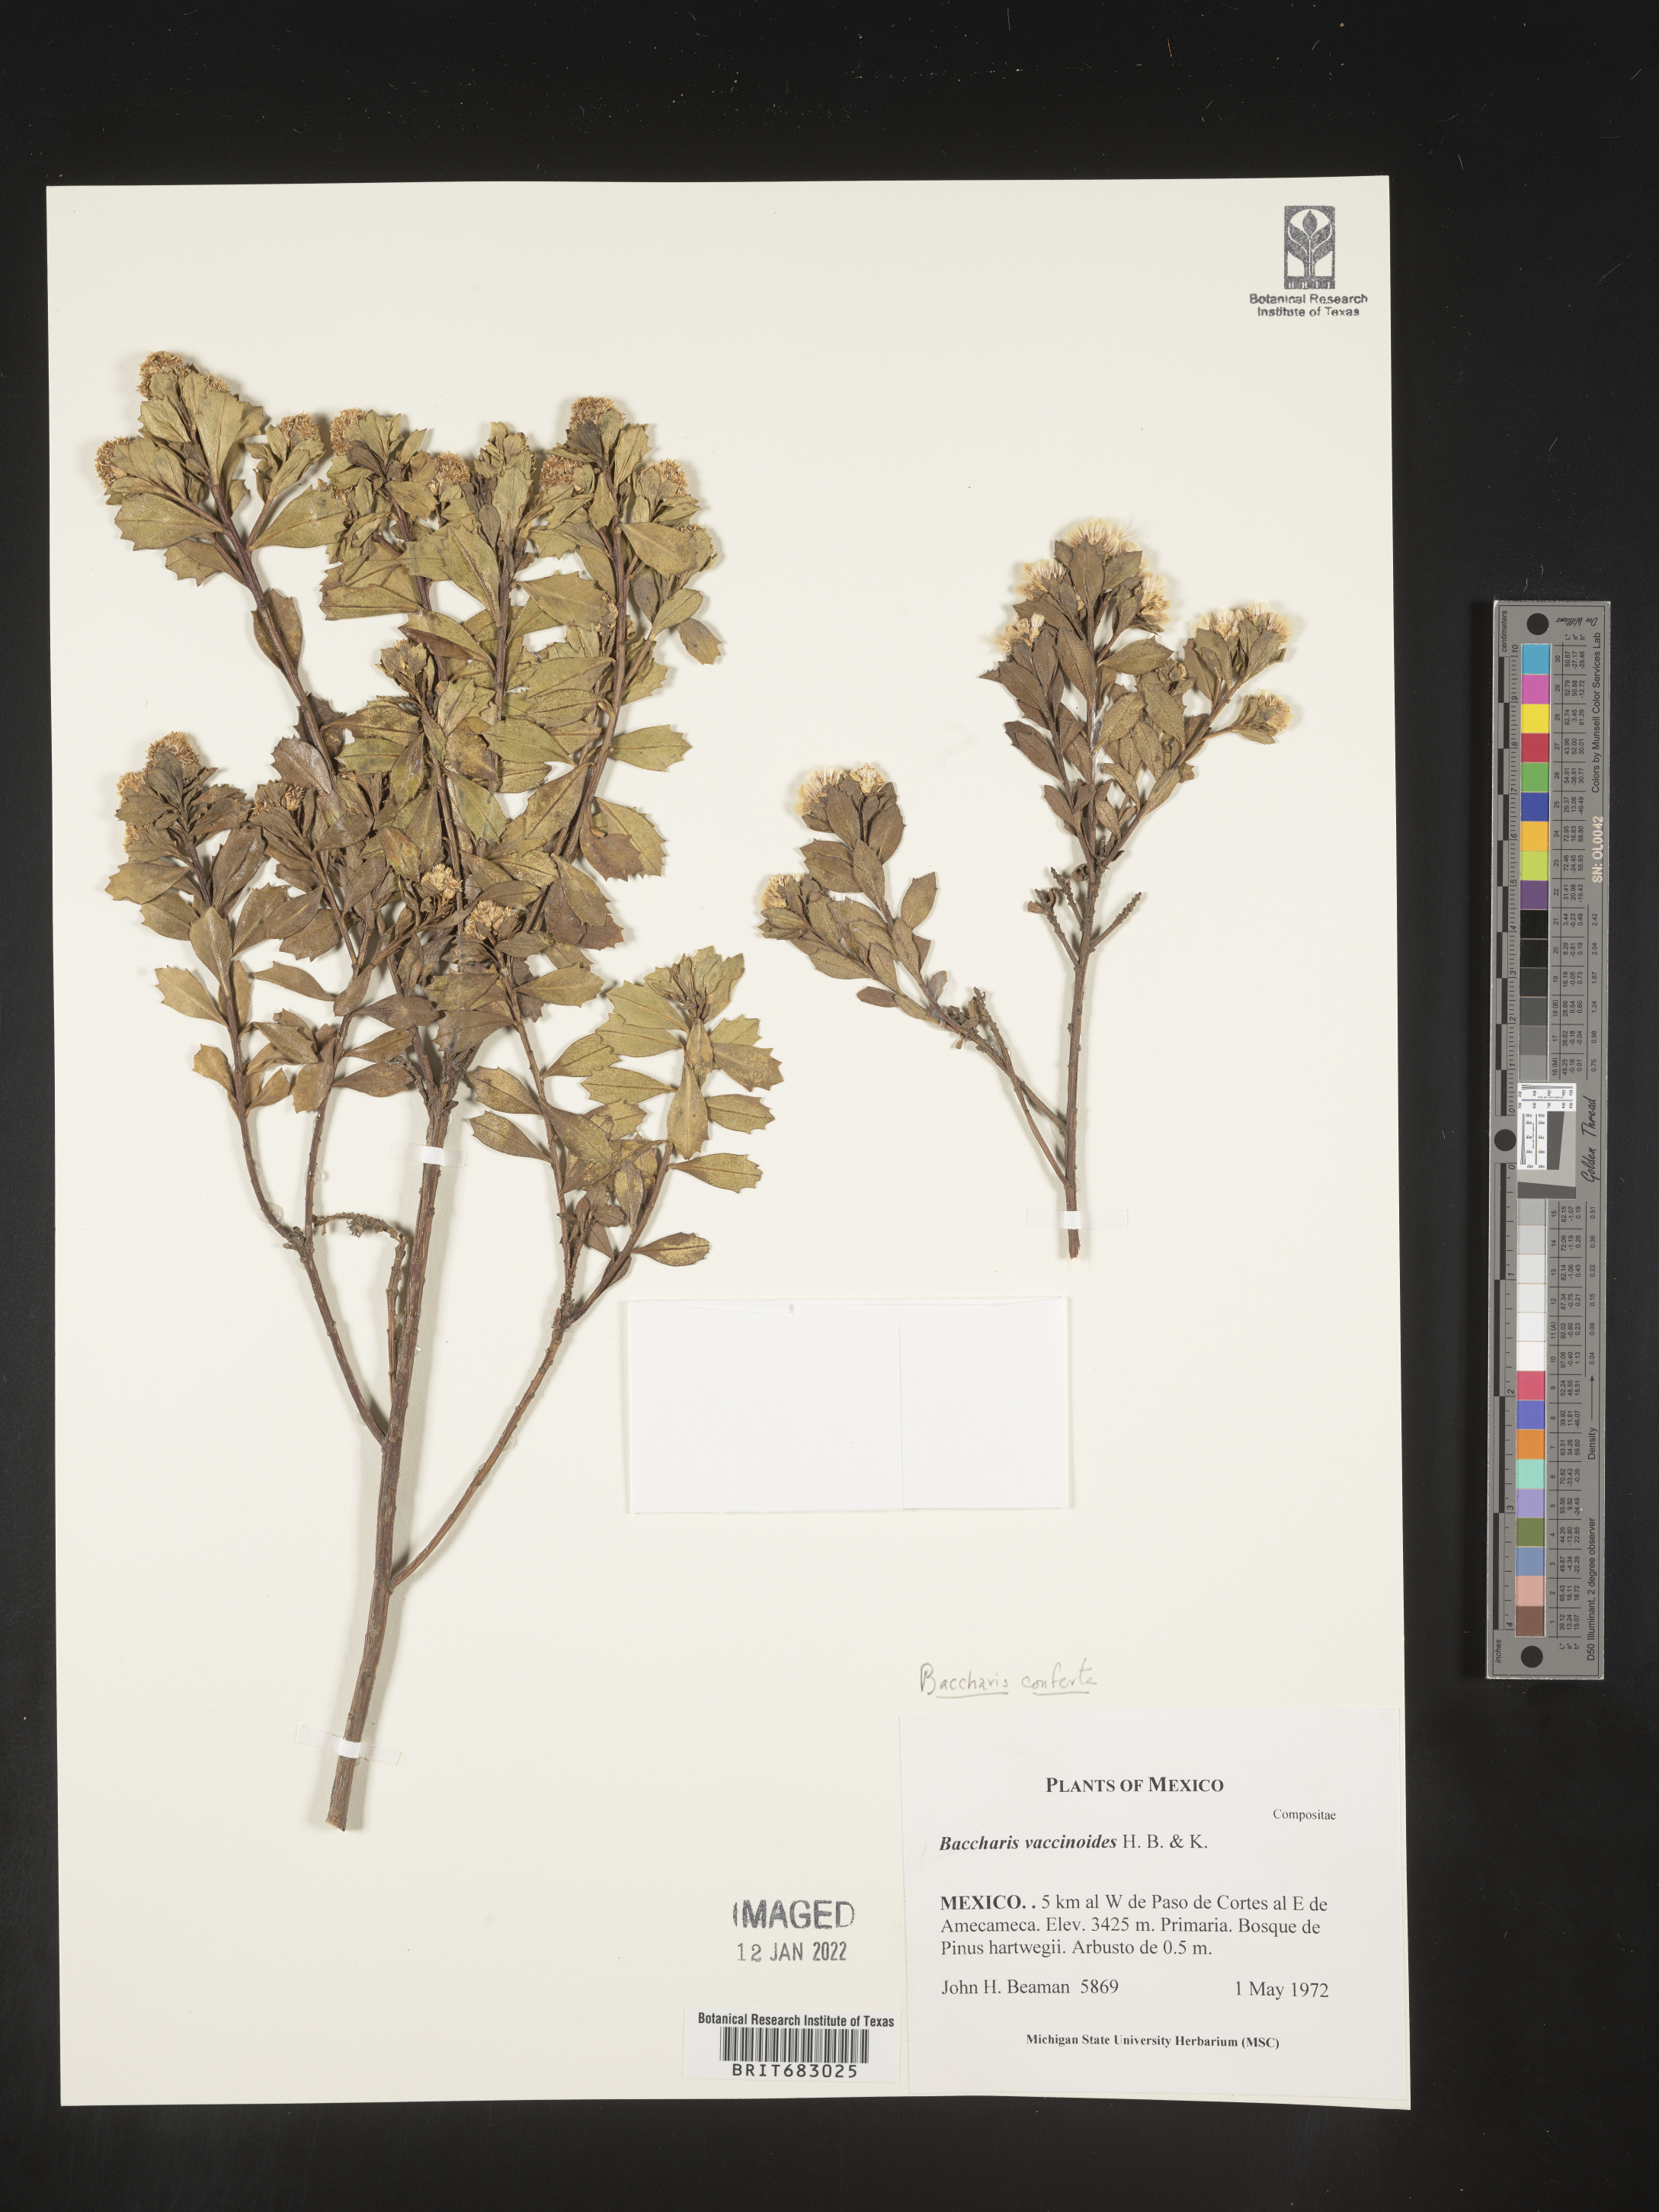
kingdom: Plantae
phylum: Tracheophyta
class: Magnoliopsida
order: Asterales
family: Asteraceae
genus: Baccharis
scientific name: Baccharis conferta
